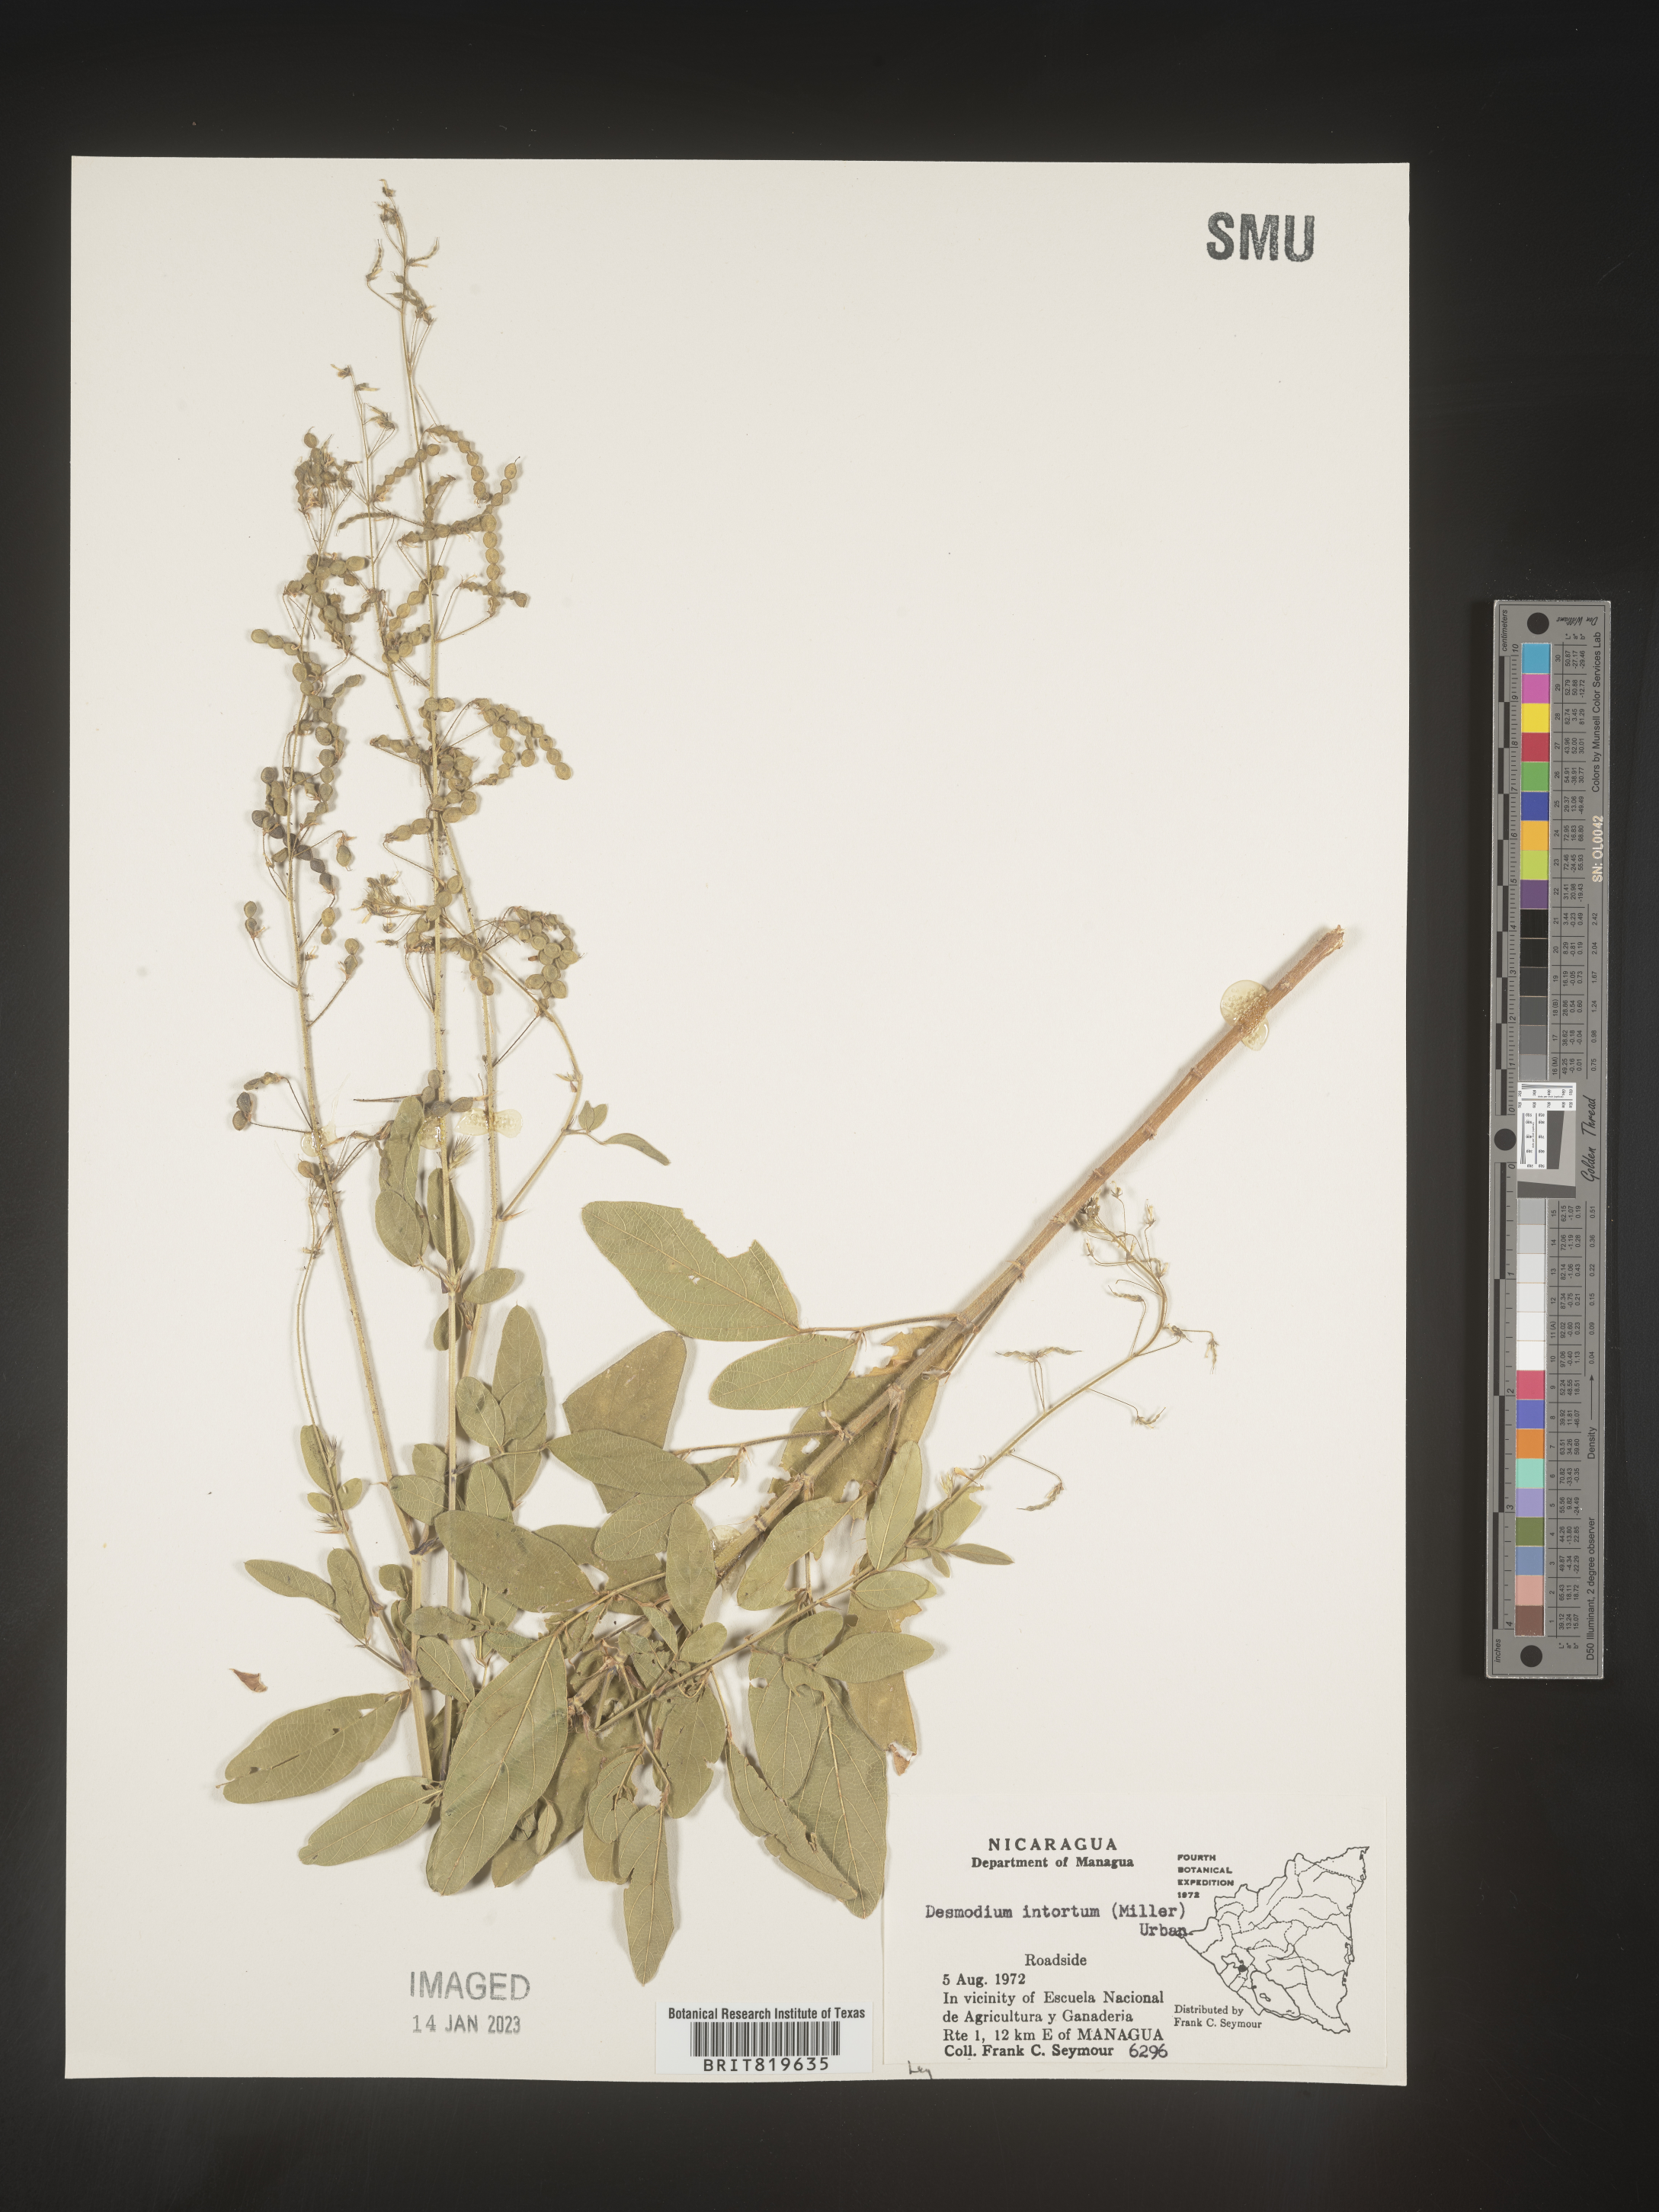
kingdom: Plantae
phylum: Tracheophyta
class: Magnoliopsida
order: Fabales
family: Fabaceae
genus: Desmodium
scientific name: Desmodium
